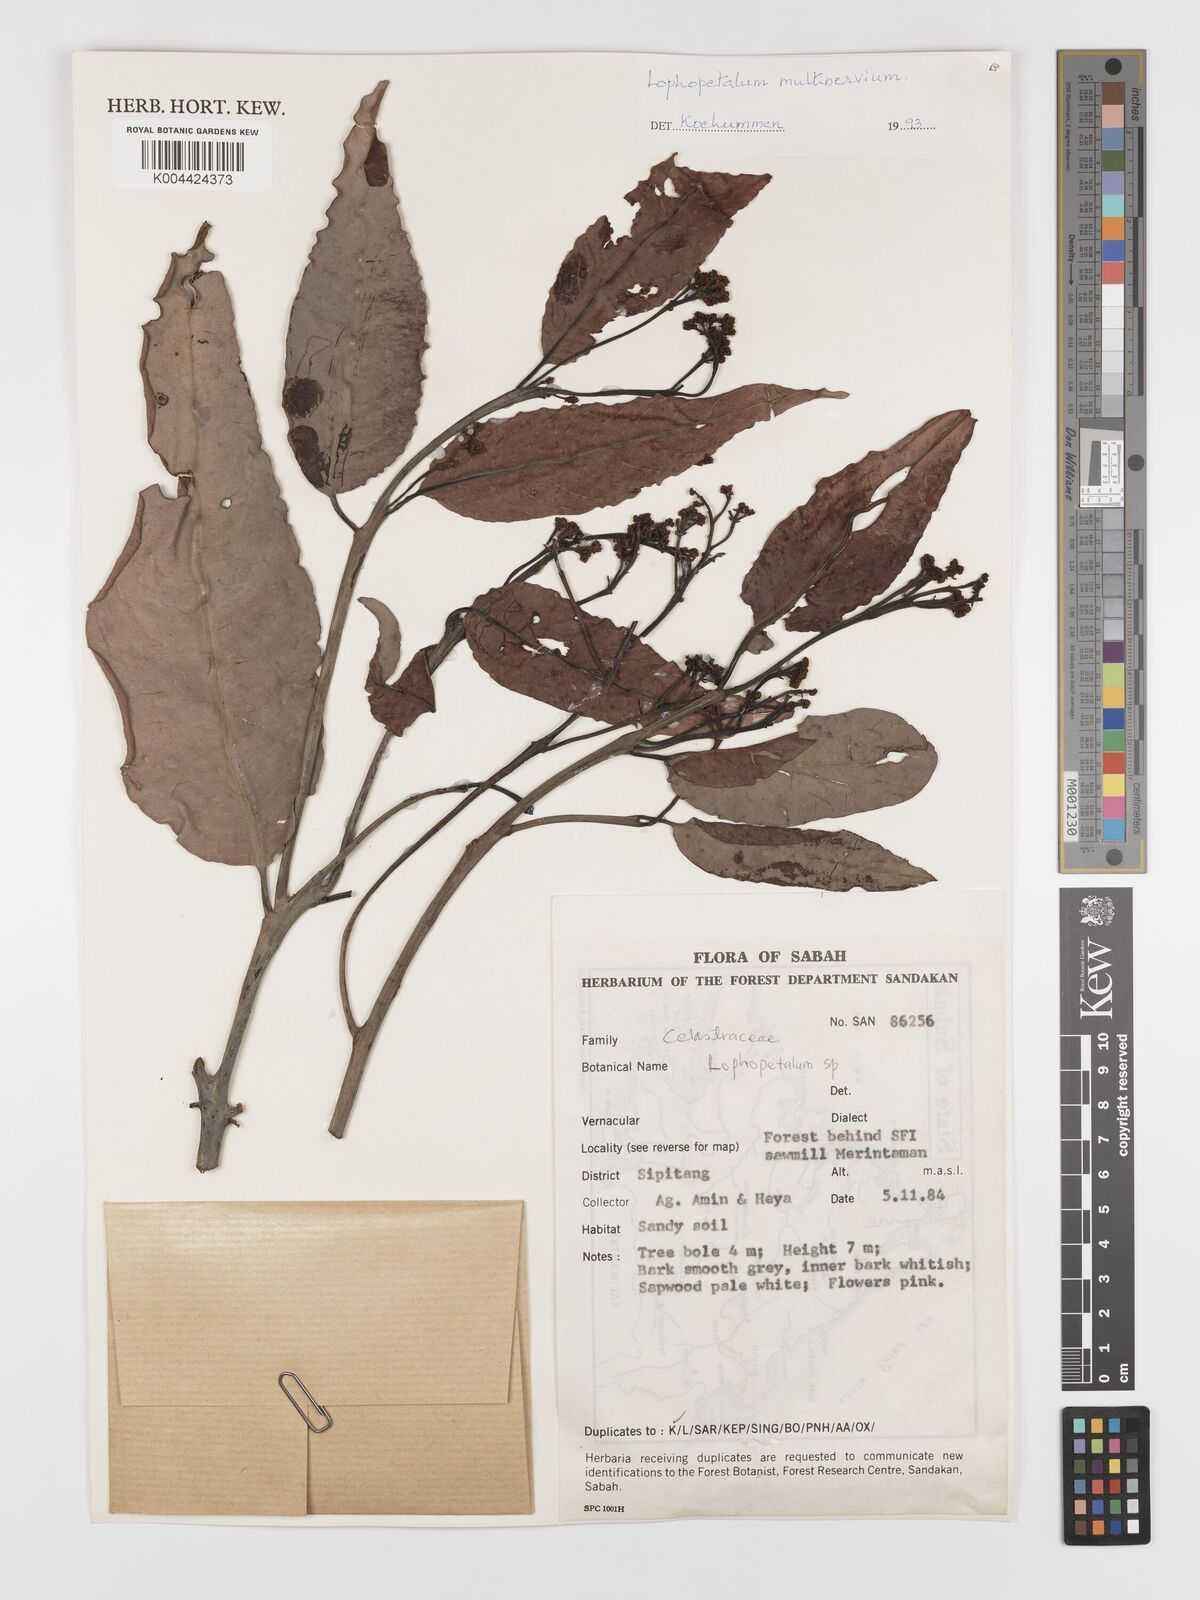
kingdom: Plantae
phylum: Tracheophyta
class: Magnoliopsida
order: Celastrales
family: Celastraceae
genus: Lophopetalum
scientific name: Lophopetalum multinervium
